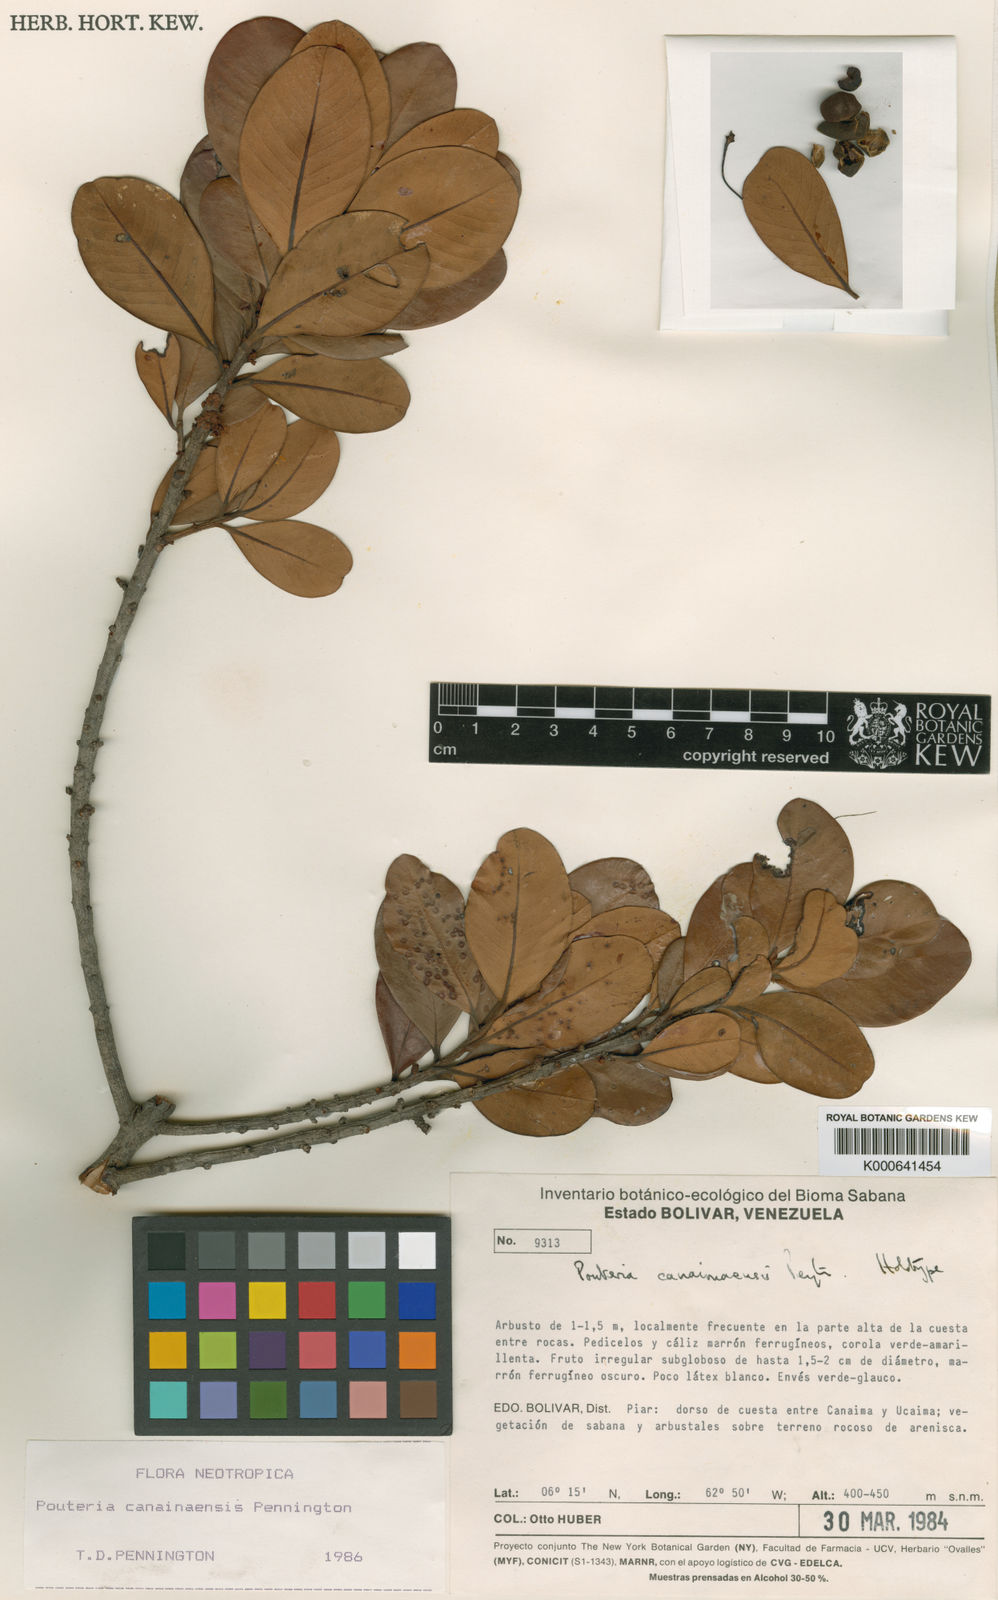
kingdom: Plantae
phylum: Tracheophyta
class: Magnoliopsida
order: Ericales
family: Sapotaceae
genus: Pouteria
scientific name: Pouteria canaimaensis
